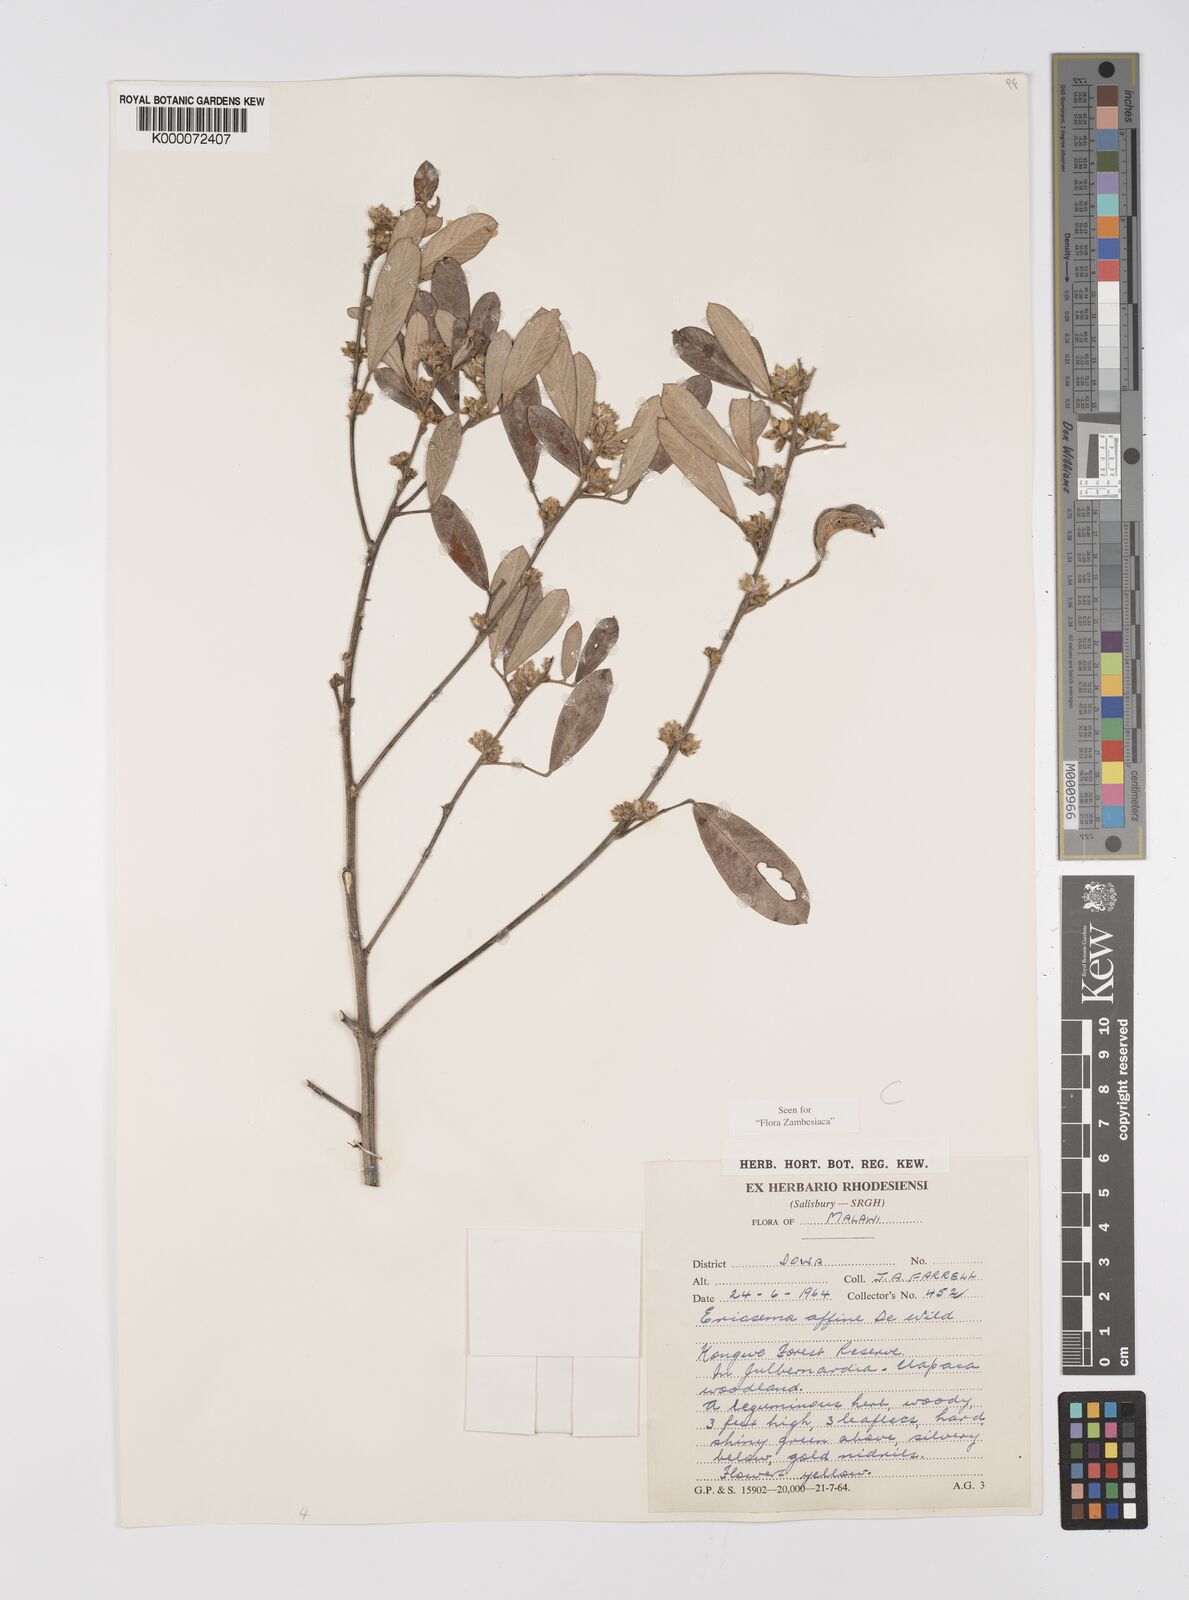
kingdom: Plantae
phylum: Tracheophyta
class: Magnoliopsida
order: Fabales
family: Fabaceae
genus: Eriosema
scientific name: Eriosema affine
